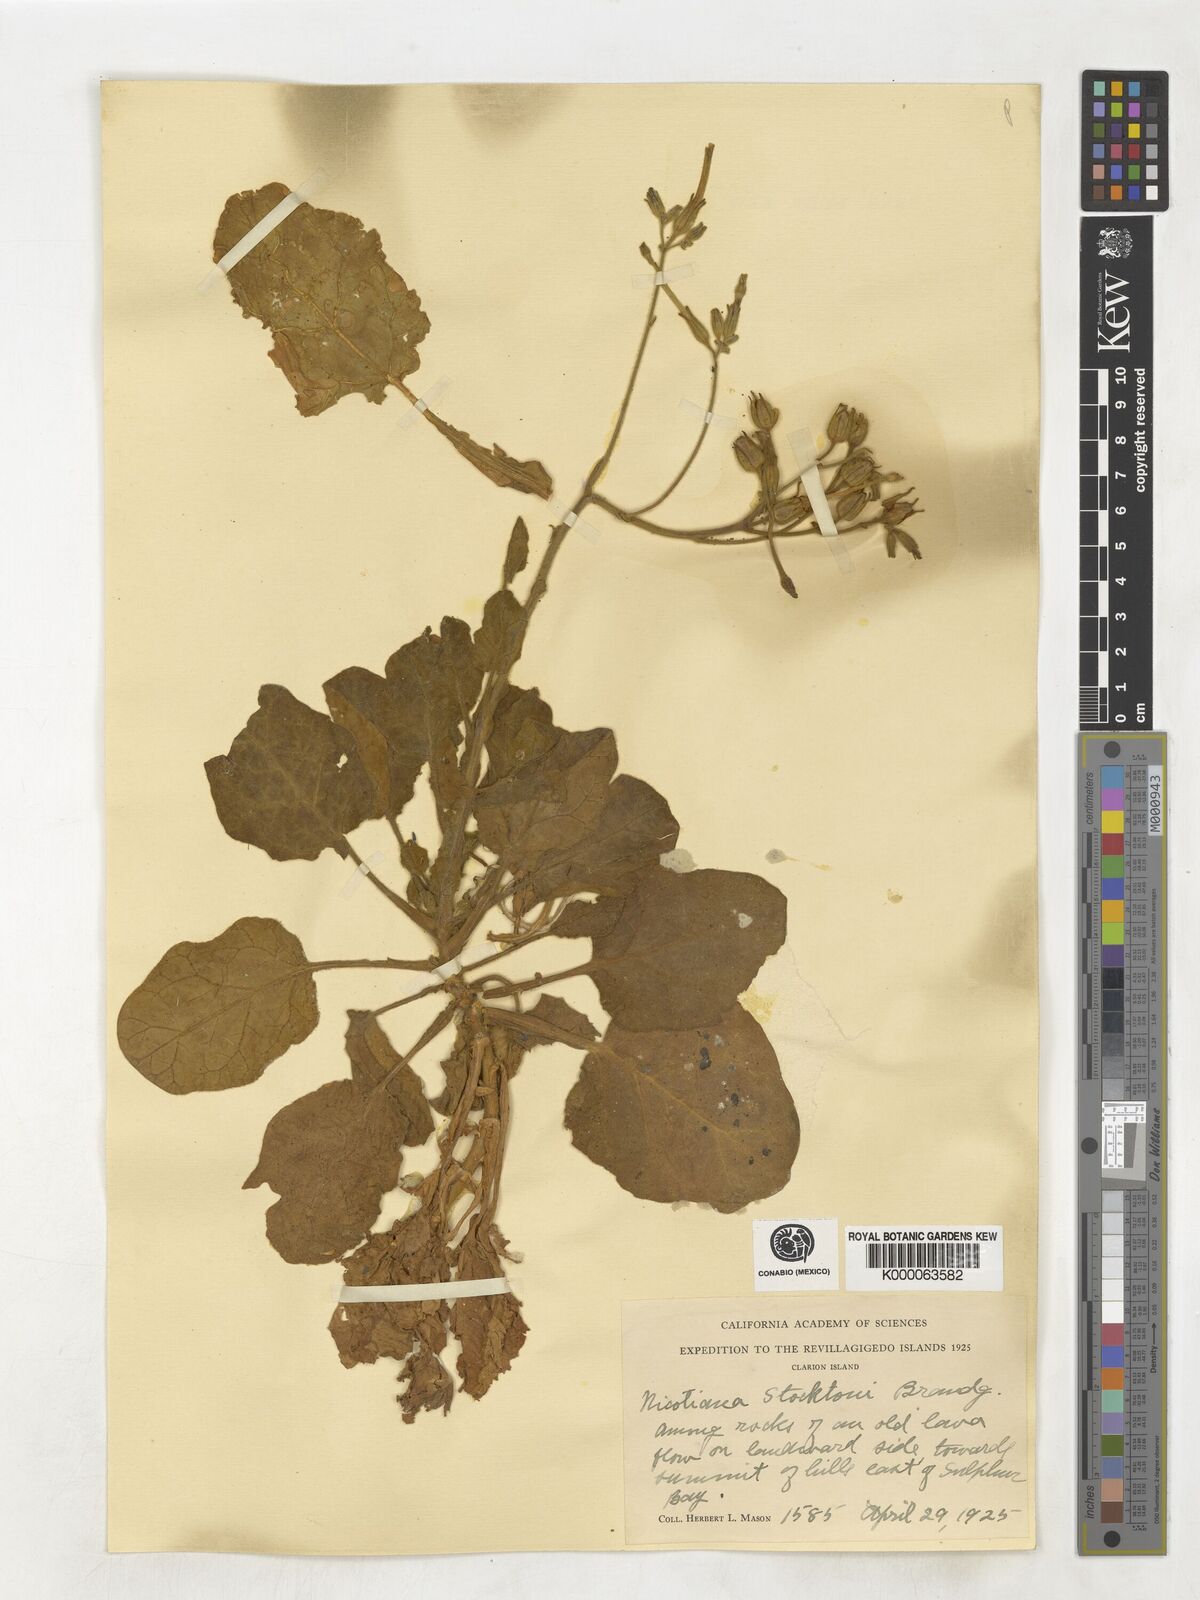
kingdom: Plantae
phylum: Tracheophyta
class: Magnoliopsida
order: Solanales
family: Solanaceae
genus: Nicotiana
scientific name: Nicotiana stocktonii
